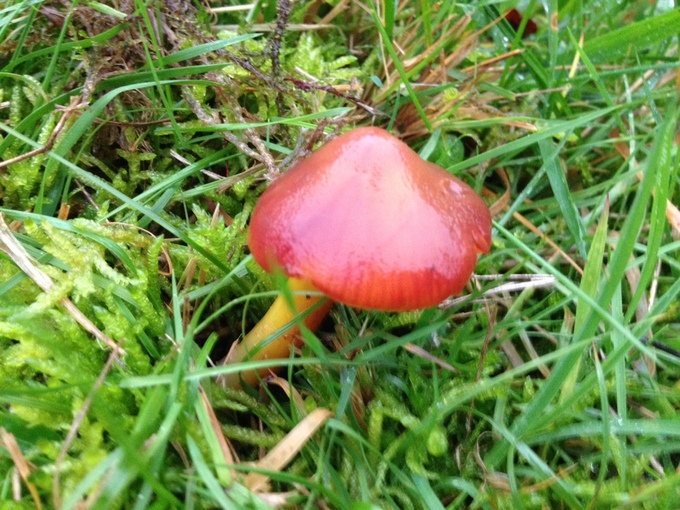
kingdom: Fungi
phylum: Basidiomycota
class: Agaricomycetes
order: Agaricales
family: Hygrophoraceae
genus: Hygrocybe
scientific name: Hygrocybe punicea
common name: skarlagen-vokshat
